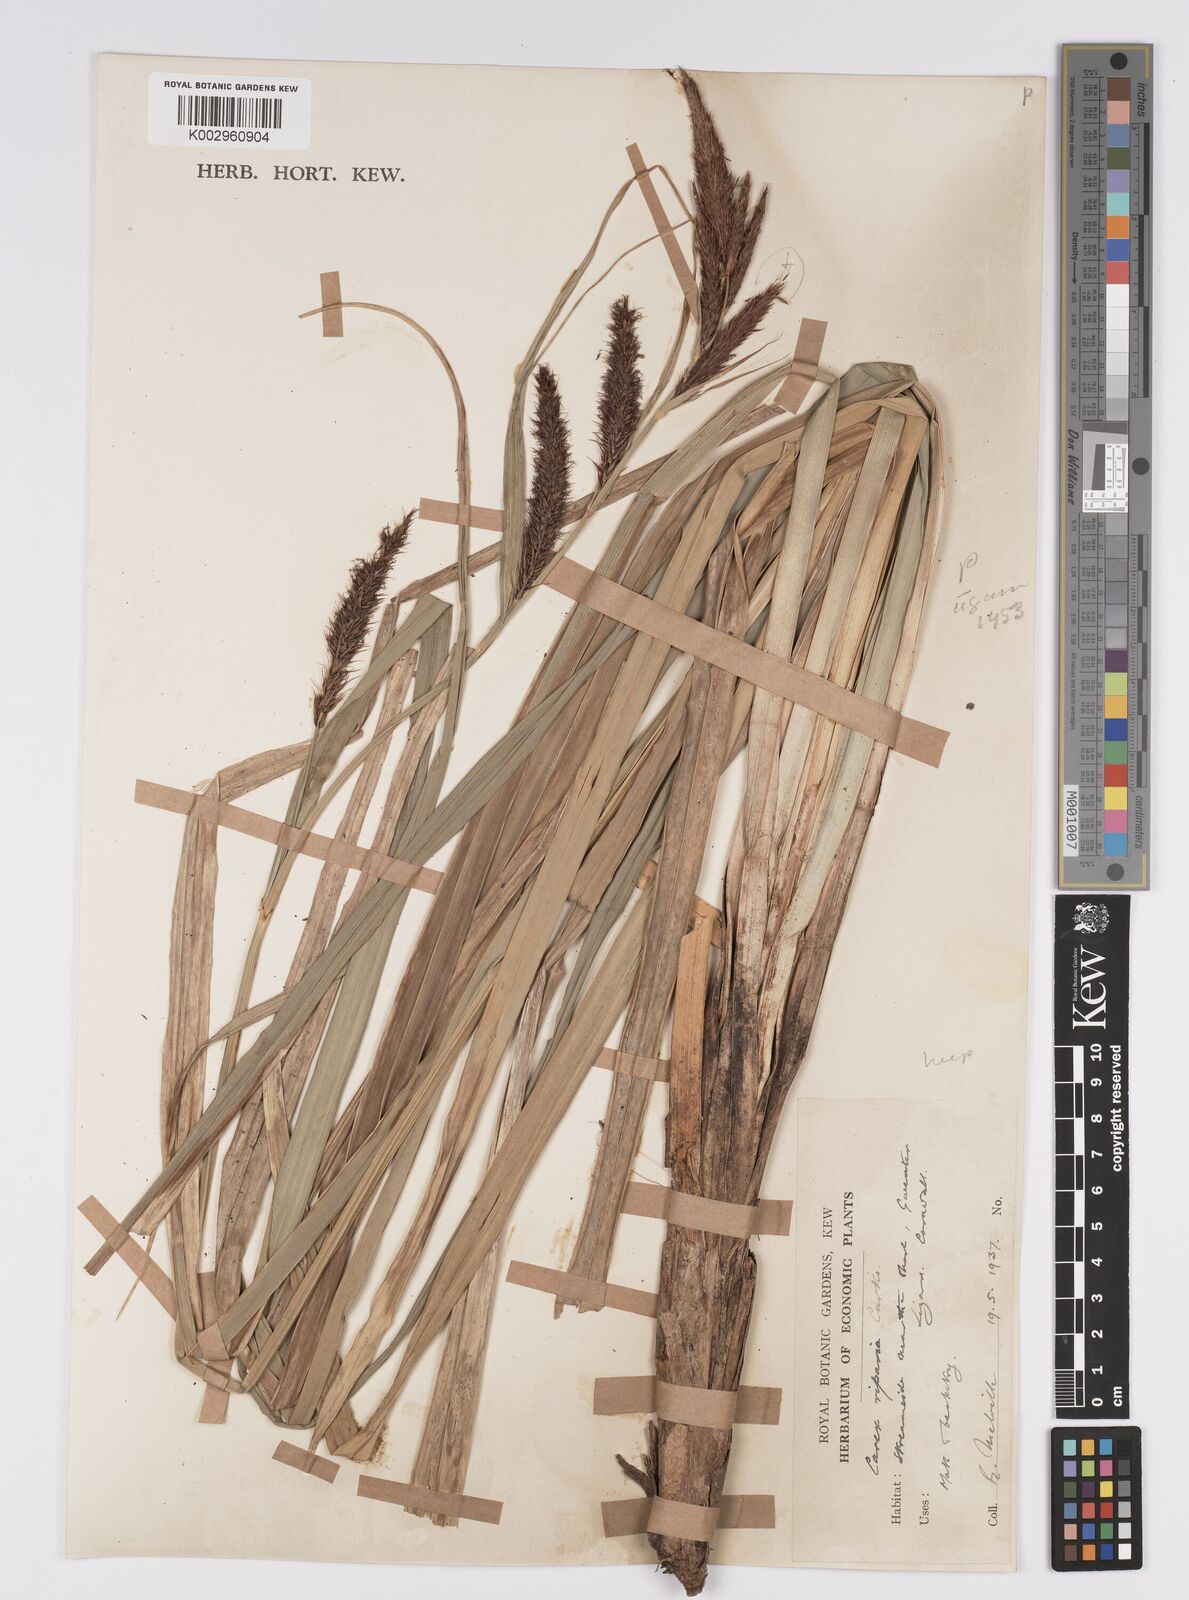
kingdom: Plantae
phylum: Tracheophyta
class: Liliopsida
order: Poales
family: Cyperaceae
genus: Carex
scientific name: Carex riparia
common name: Greater pond-sedge
